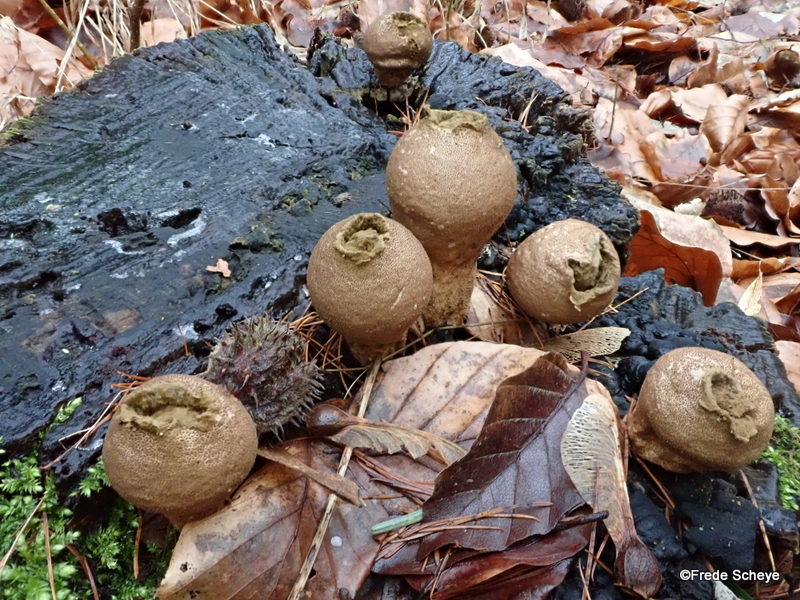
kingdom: Fungi
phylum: Basidiomycota
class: Agaricomycetes
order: Agaricales
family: Lycoperdaceae
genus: Apioperdon
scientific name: Apioperdon pyriforme
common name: pære-støvbold
